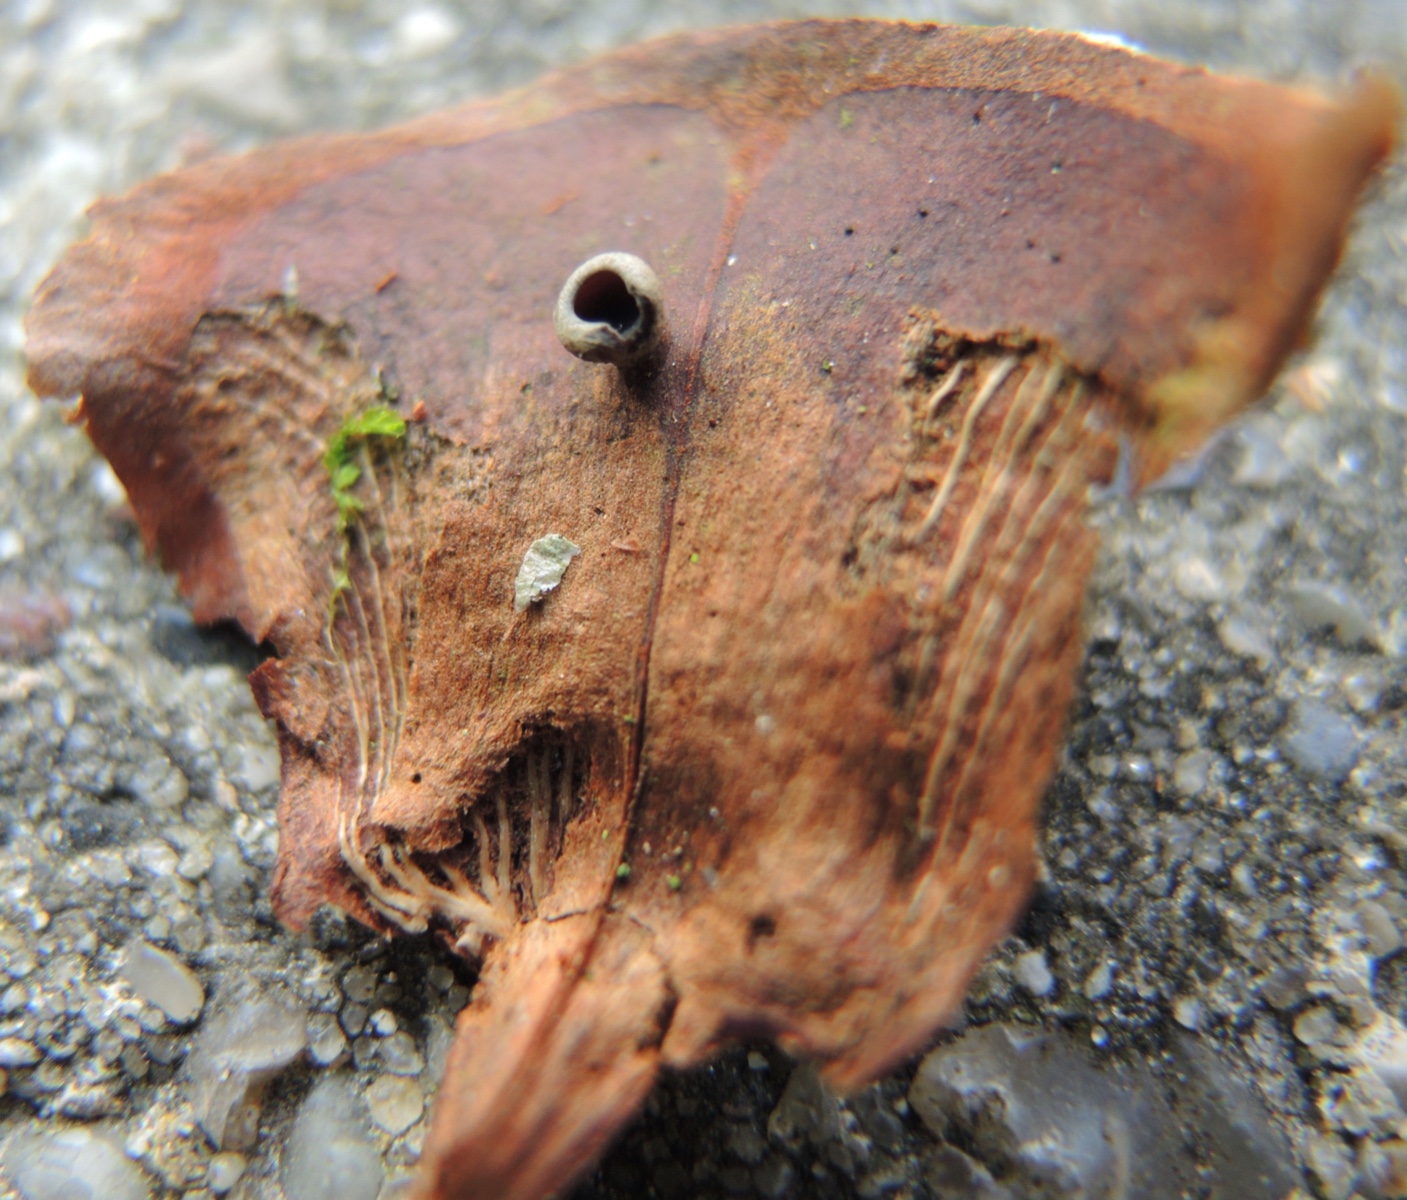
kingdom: Fungi
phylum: Ascomycota
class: Leotiomycetes
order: Helotiales
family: Sclerotiniaceae
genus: Ciboria
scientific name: Ciboria rufofusca
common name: kogleskæl-knoldskive
